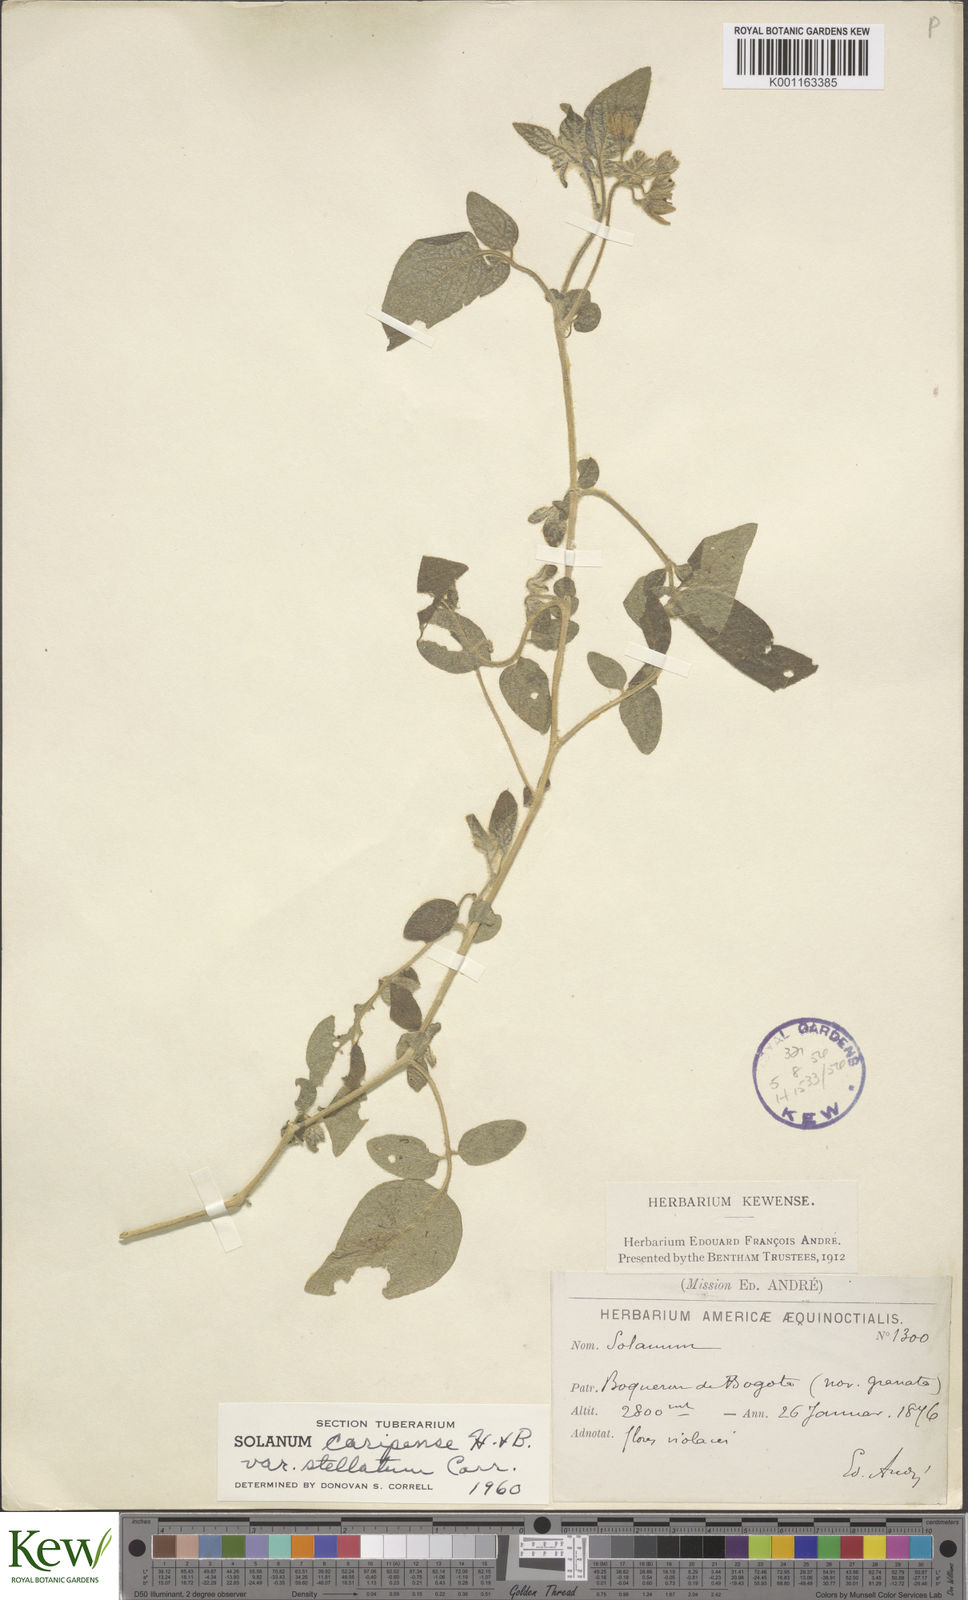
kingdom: Plantae
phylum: Tracheophyta
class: Magnoliopsida
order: Solanales
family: Solanaceae
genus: Solanum
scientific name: Solanum caripense
